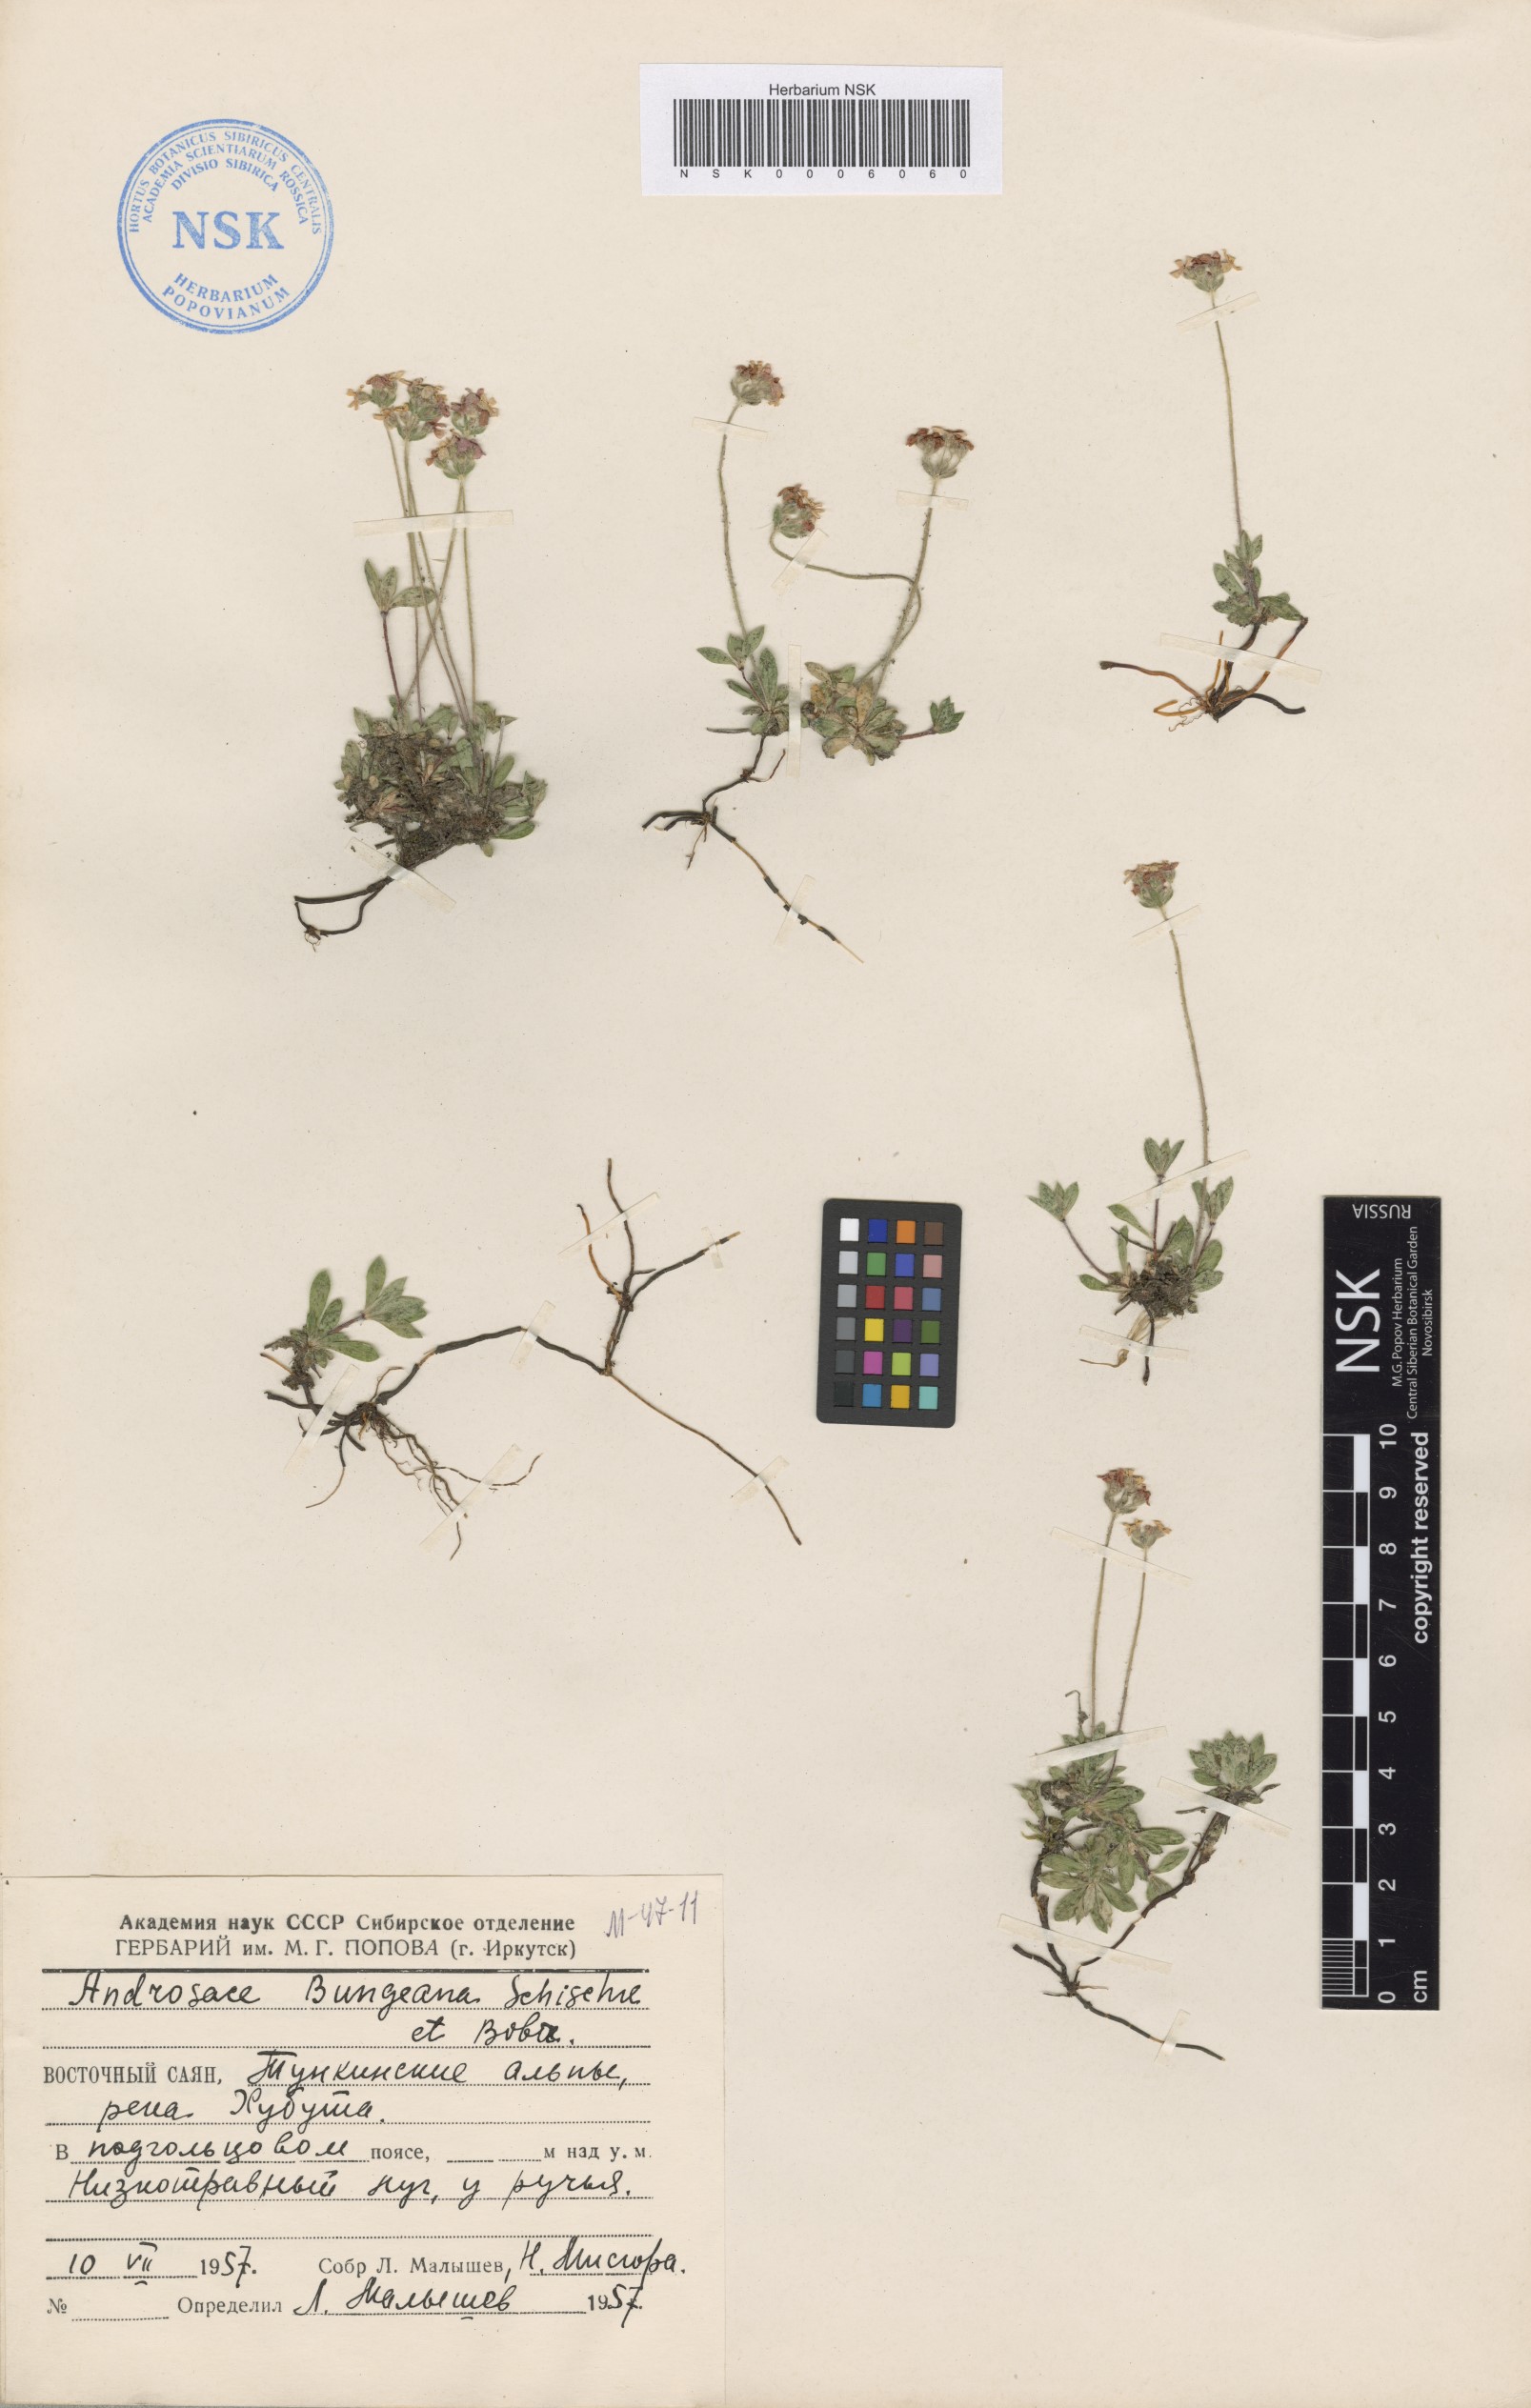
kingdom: Plantae
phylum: Tracheophyta
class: Magnoliopsida
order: Ericales
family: Primulaceae
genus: Androsace
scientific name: Androsace bungeana
